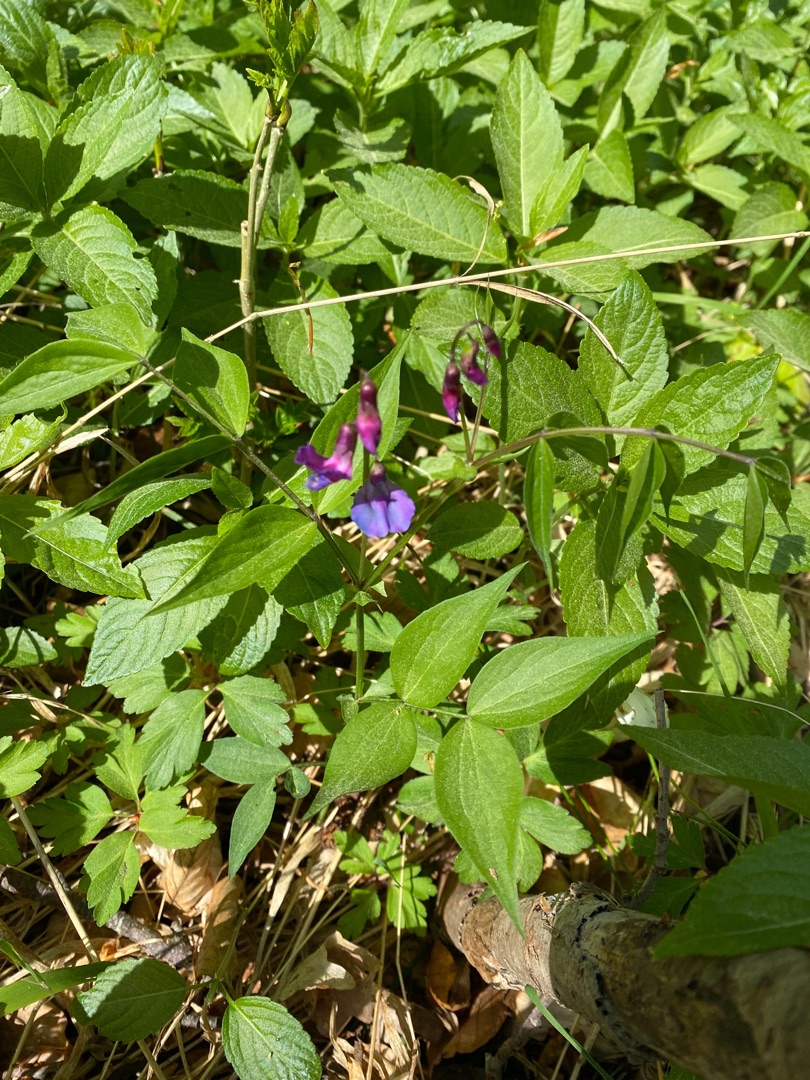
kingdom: Plantae
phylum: Tracheophyta
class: Magnoliopsida
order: Fabales
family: Fabaceae
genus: Lathyrus
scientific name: Lathyrus vernus
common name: Vår-fladbælg
